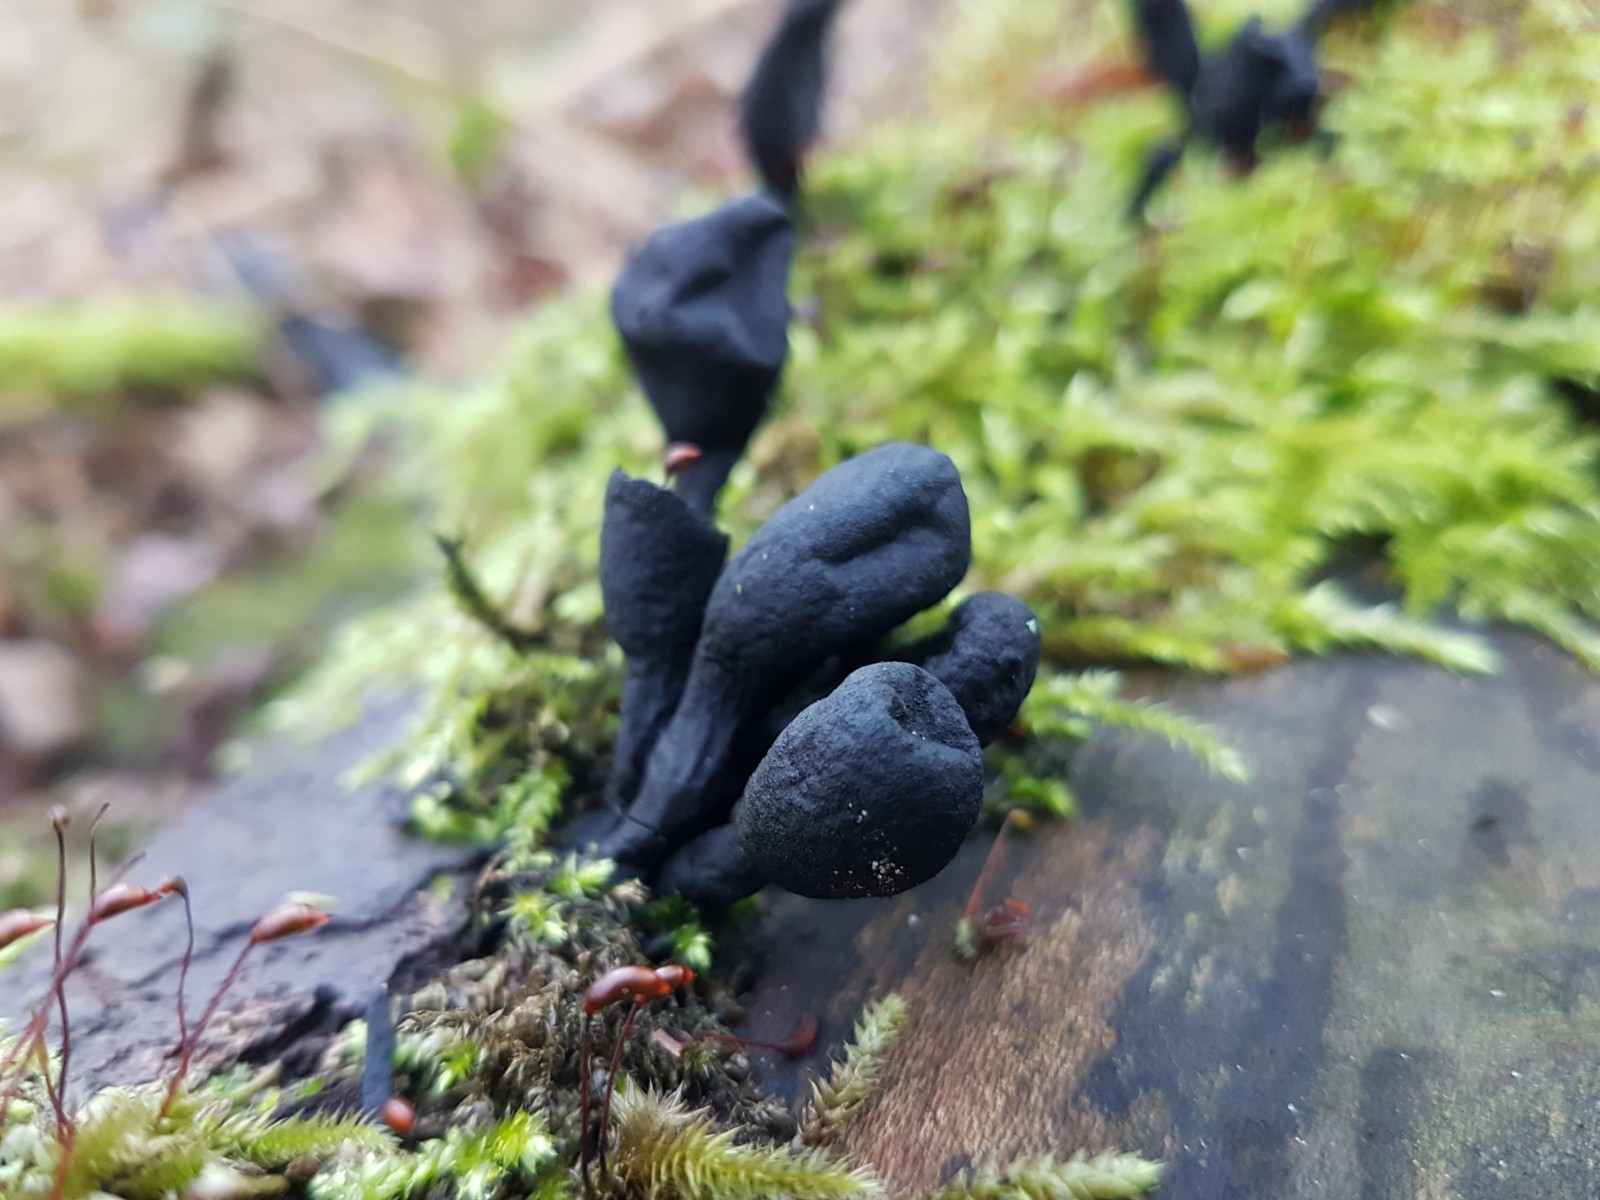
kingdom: Fungi
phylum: Ascomycota
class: Sordariomycetes
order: Xylariales
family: Xylariaceae
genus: Xylaria
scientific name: Xylaria
